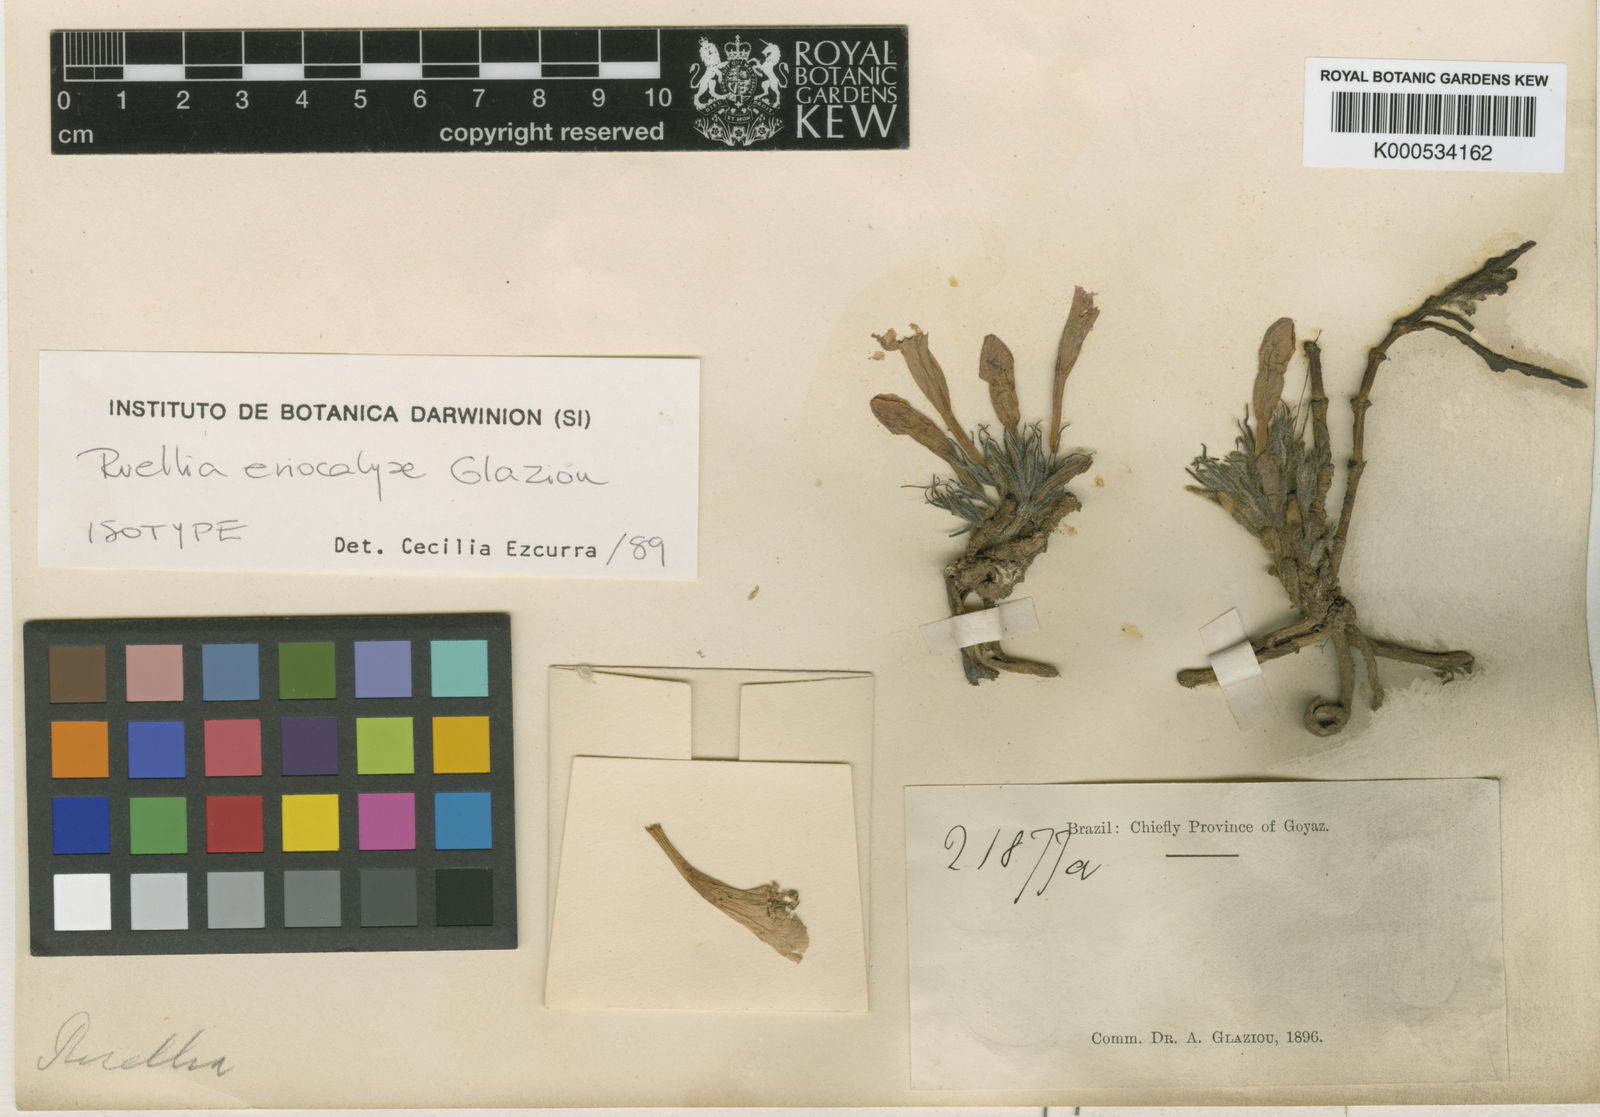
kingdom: Plantae
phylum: Tracheophyta
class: Magnoliopsida
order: Lamiales
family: Acanthaceae
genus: Ruellia
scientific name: Ruellia
